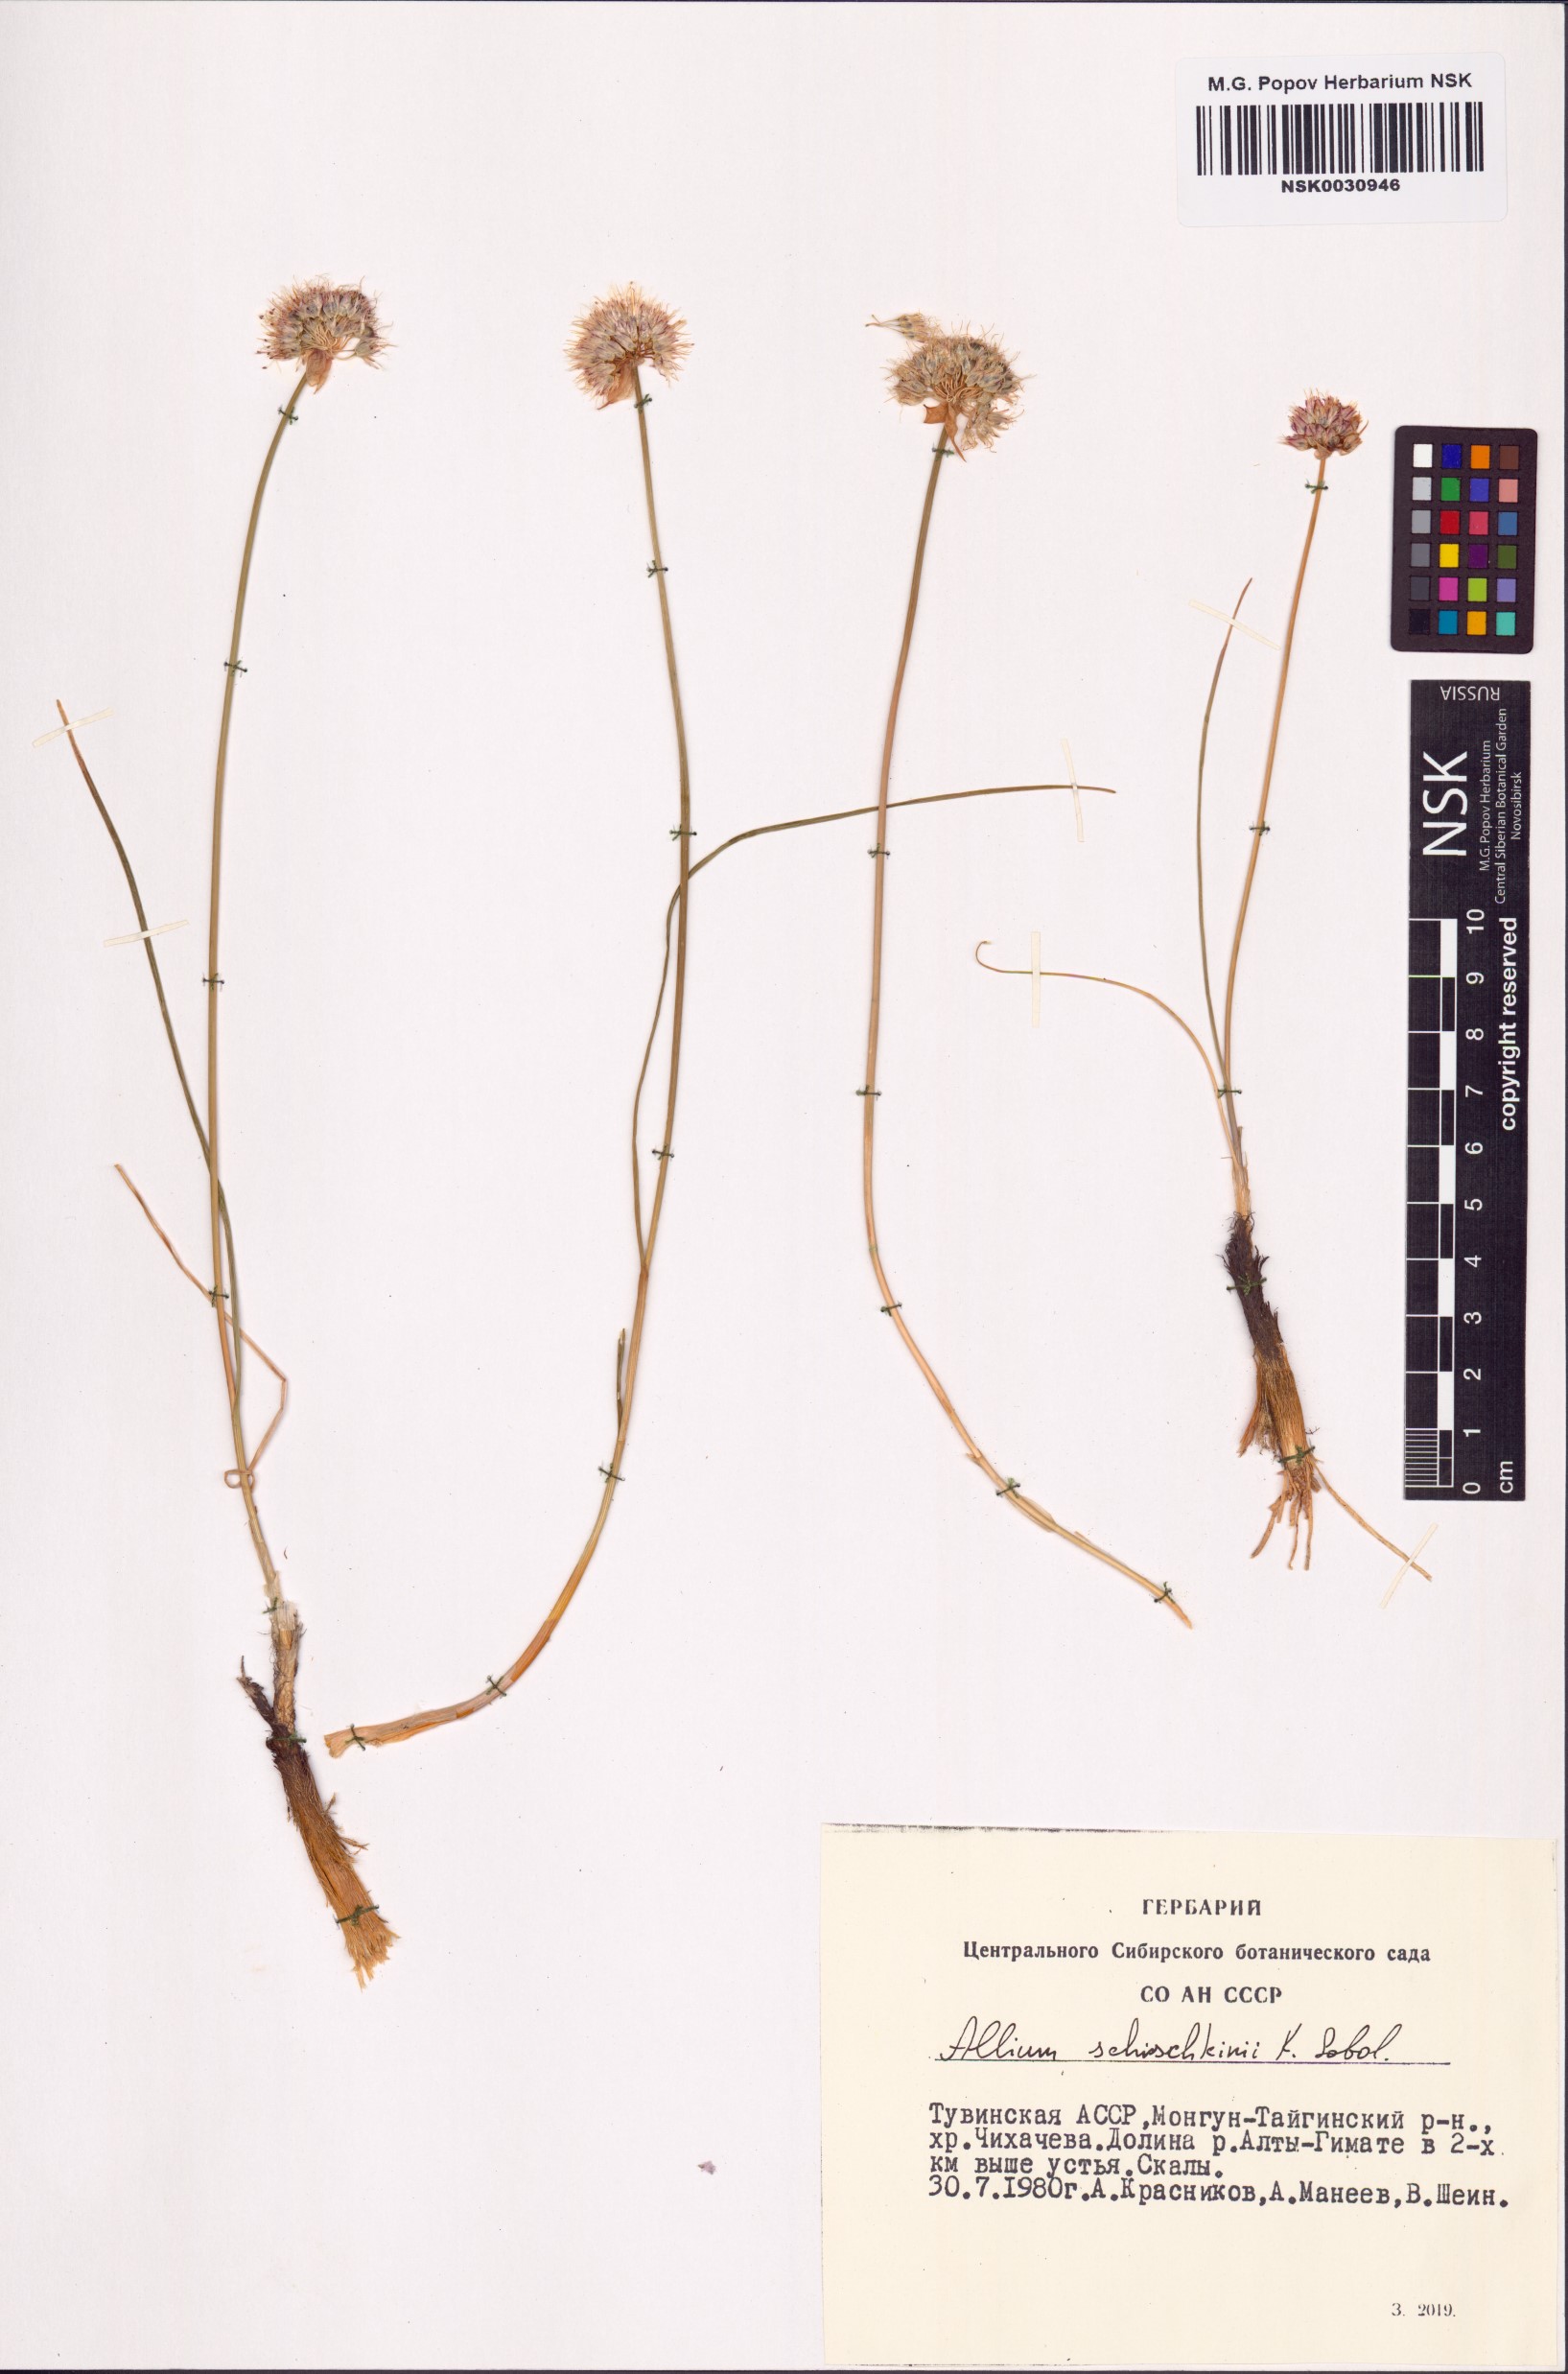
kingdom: Plantae
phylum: Tracheophyta
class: Liliopsida
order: Asparagales
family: Amaryllidaceae
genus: Allium
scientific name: Allium schischkinii
